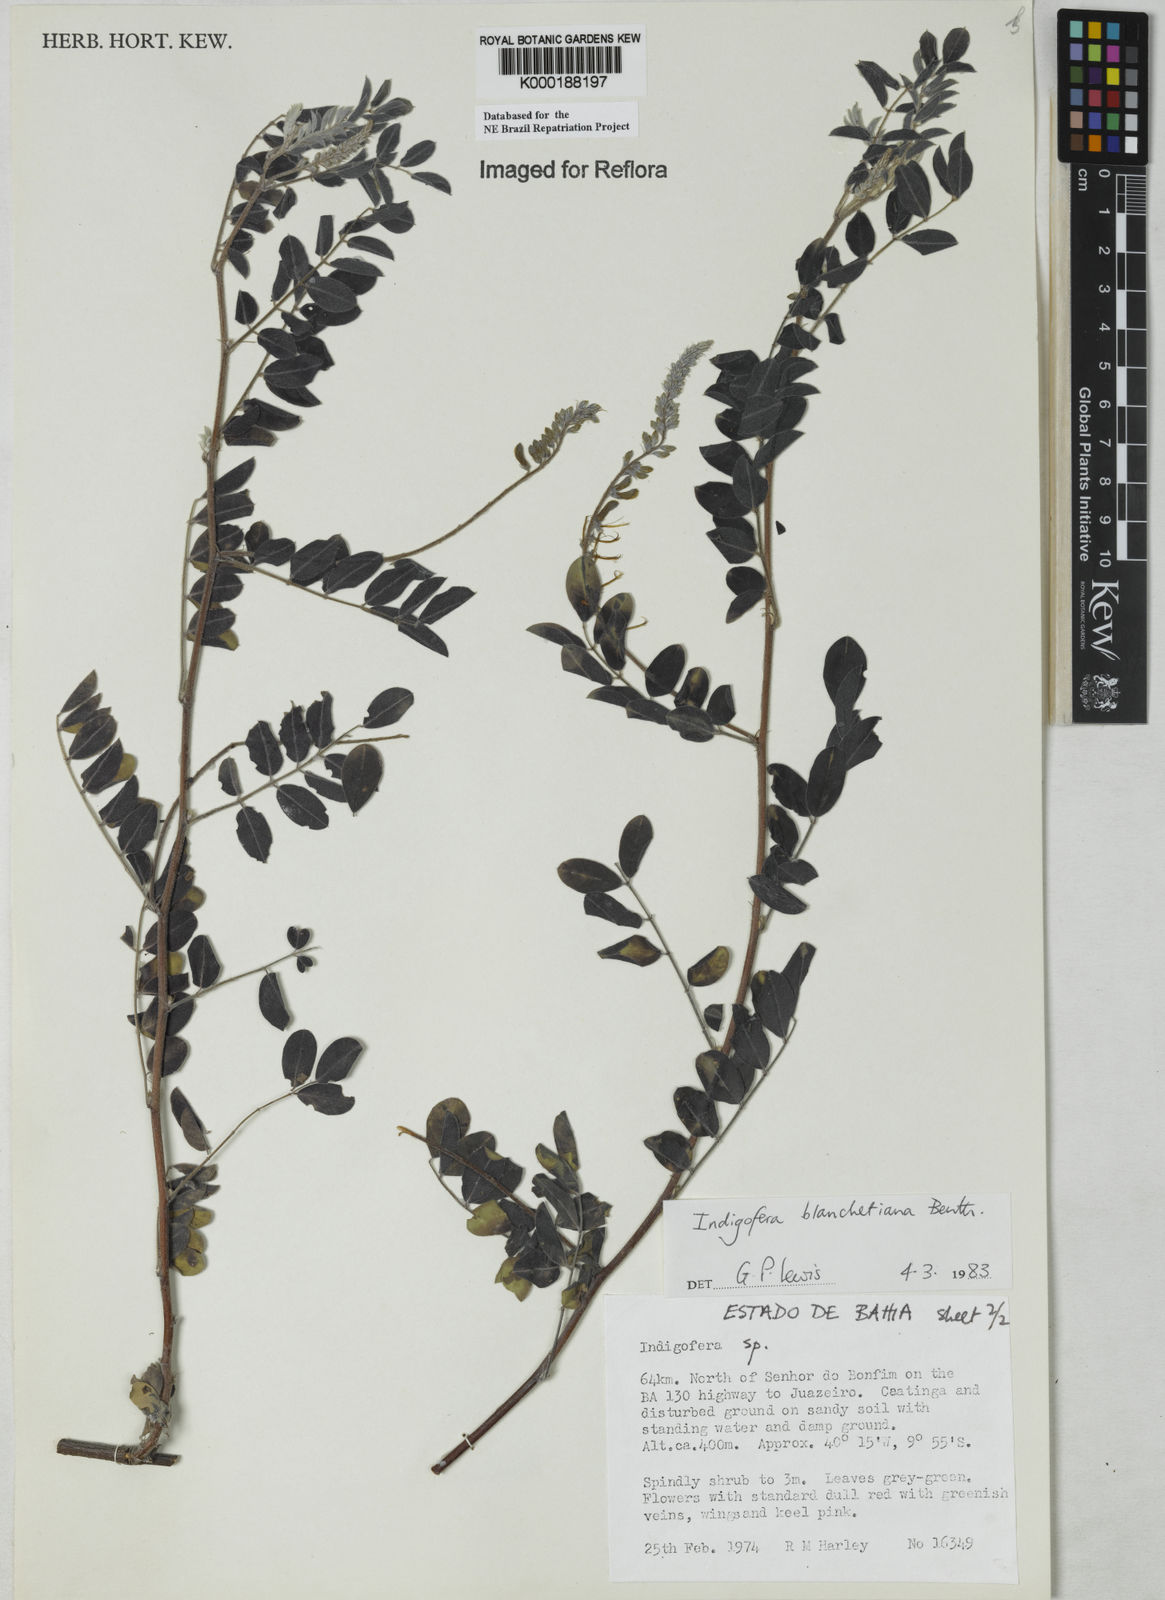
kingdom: Plantae
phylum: Tracheophyta
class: Magnoliopsida
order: Fabales
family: Fabaceae
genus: Indigofera
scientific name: Indigofera blanchetiana
